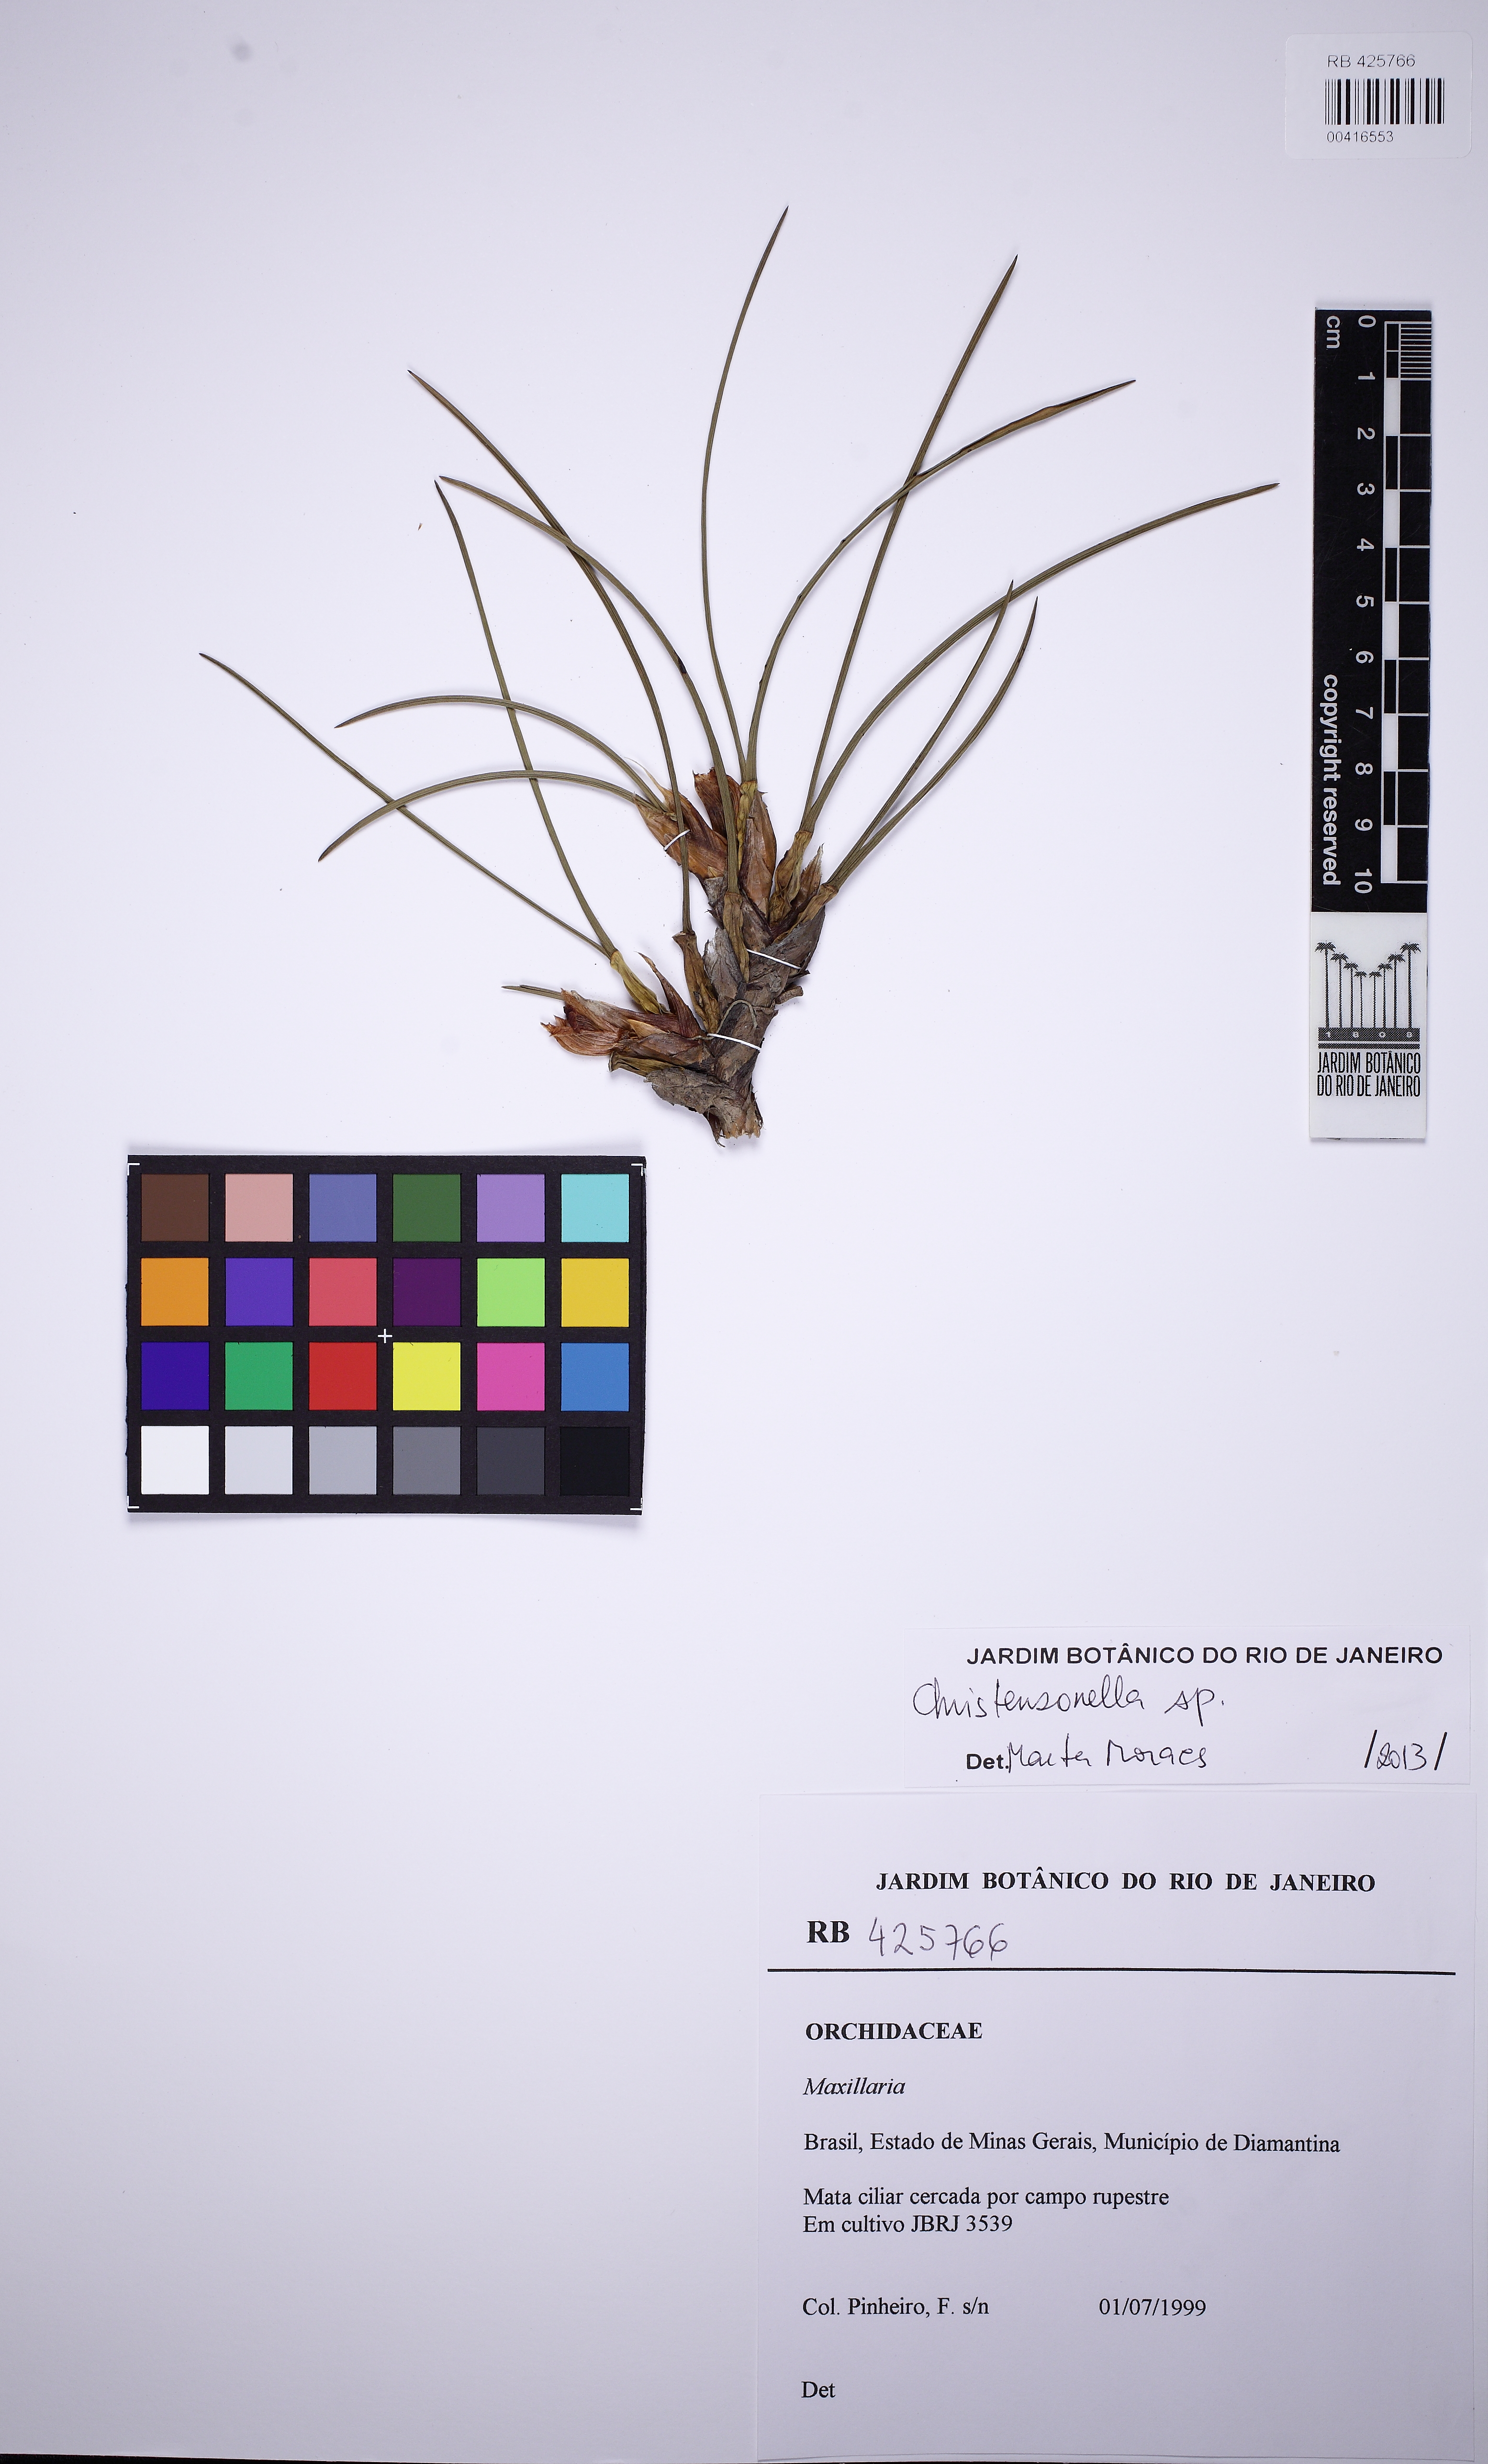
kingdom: Plantae
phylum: Tracheophyta
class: Liliopsida
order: Asparagales
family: Orchidaceae
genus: Maxillaria
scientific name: Maxillaria
